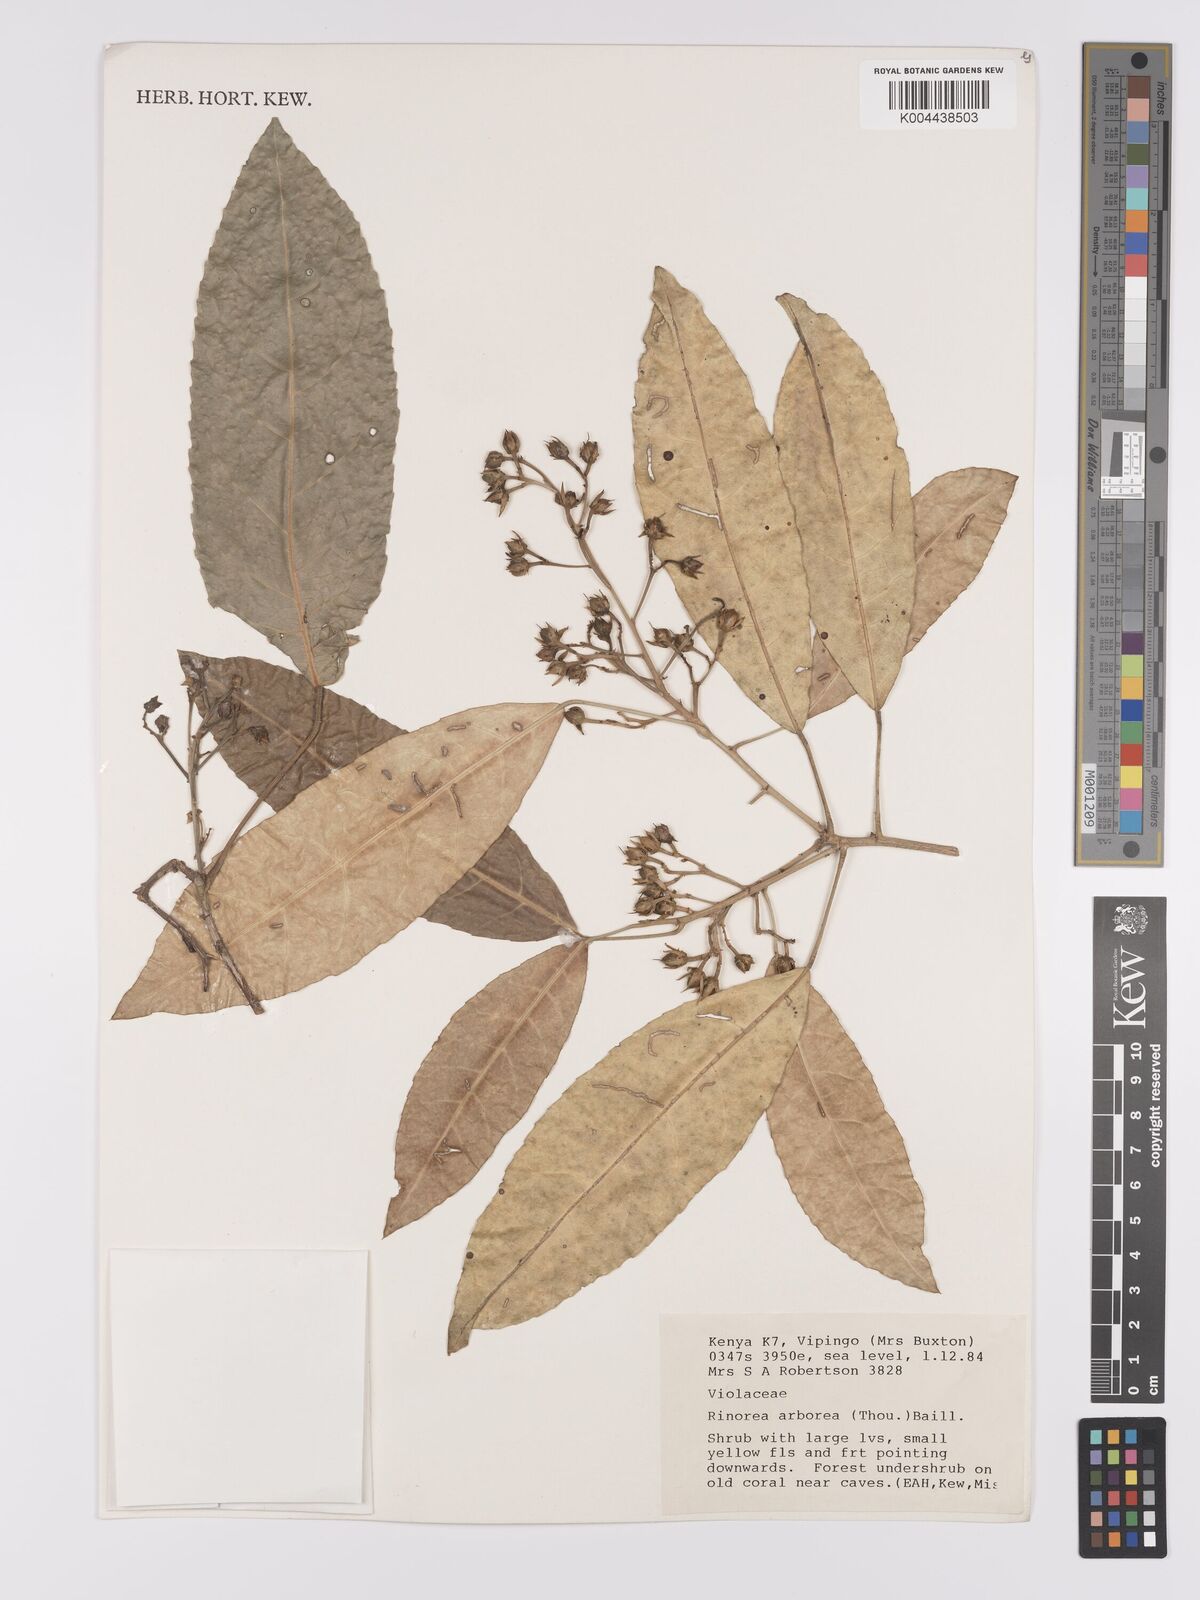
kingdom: Plantae
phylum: Tracheophyta
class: Magnoliopsida
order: Malpighiales
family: Violaceae
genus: Rinorea
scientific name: Rinorea arborea
